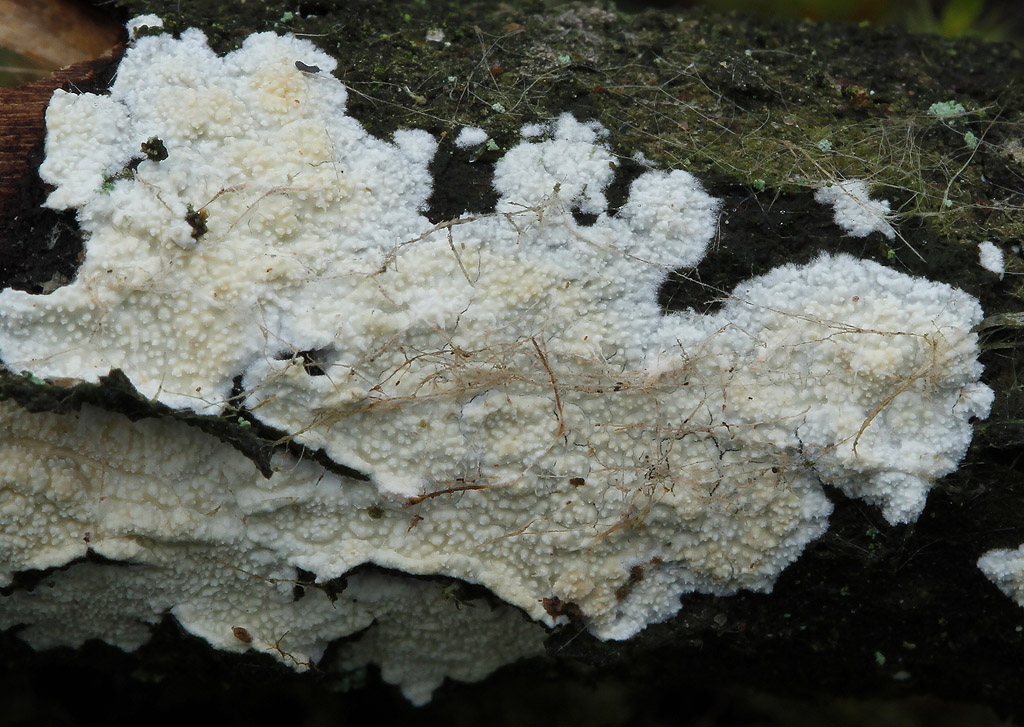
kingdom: Fungi
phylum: Basidiomycota
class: Agaricomycetes
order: Corticiales
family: Corticiaceae
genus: Lyomyces
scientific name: Lyomyces crustosus
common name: vortet hyldehinde
